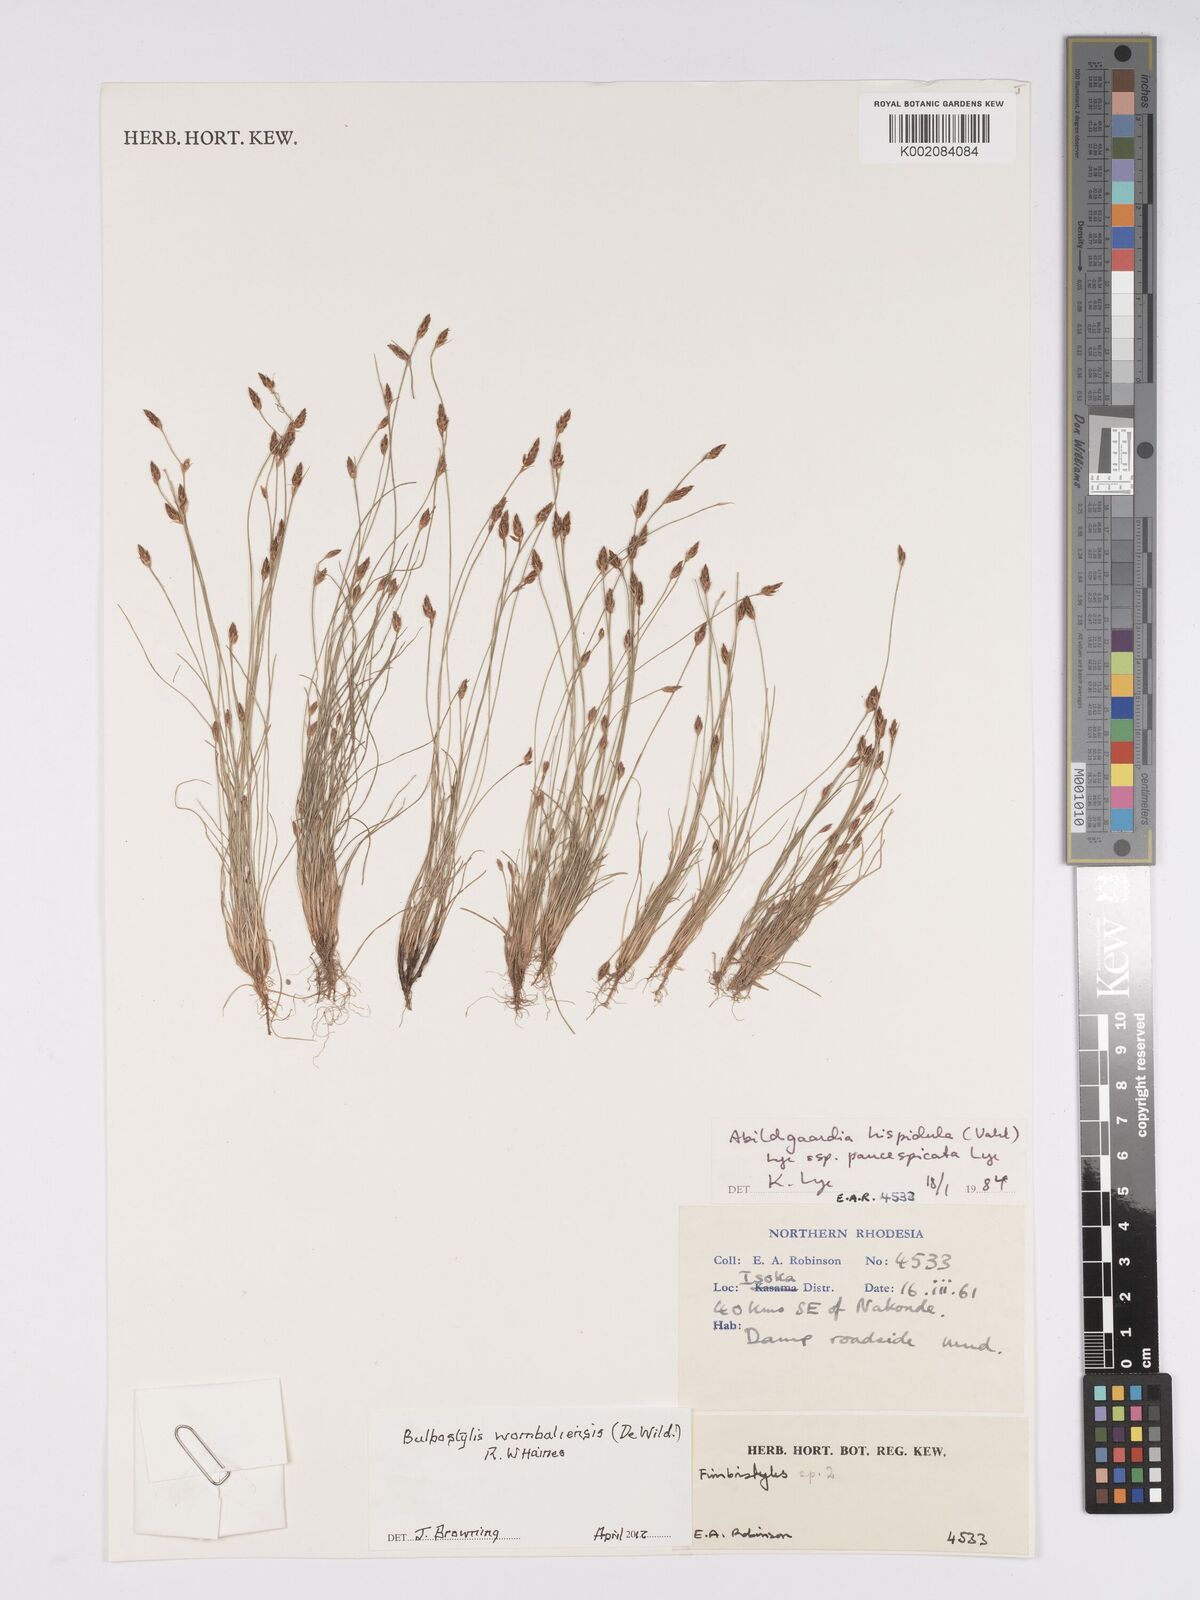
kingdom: Plantae
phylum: Tracheophyta
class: Liliopsida
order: Poales
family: Cyperaceae
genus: Bulbostylis
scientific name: Bulbostylis wombaliensis
